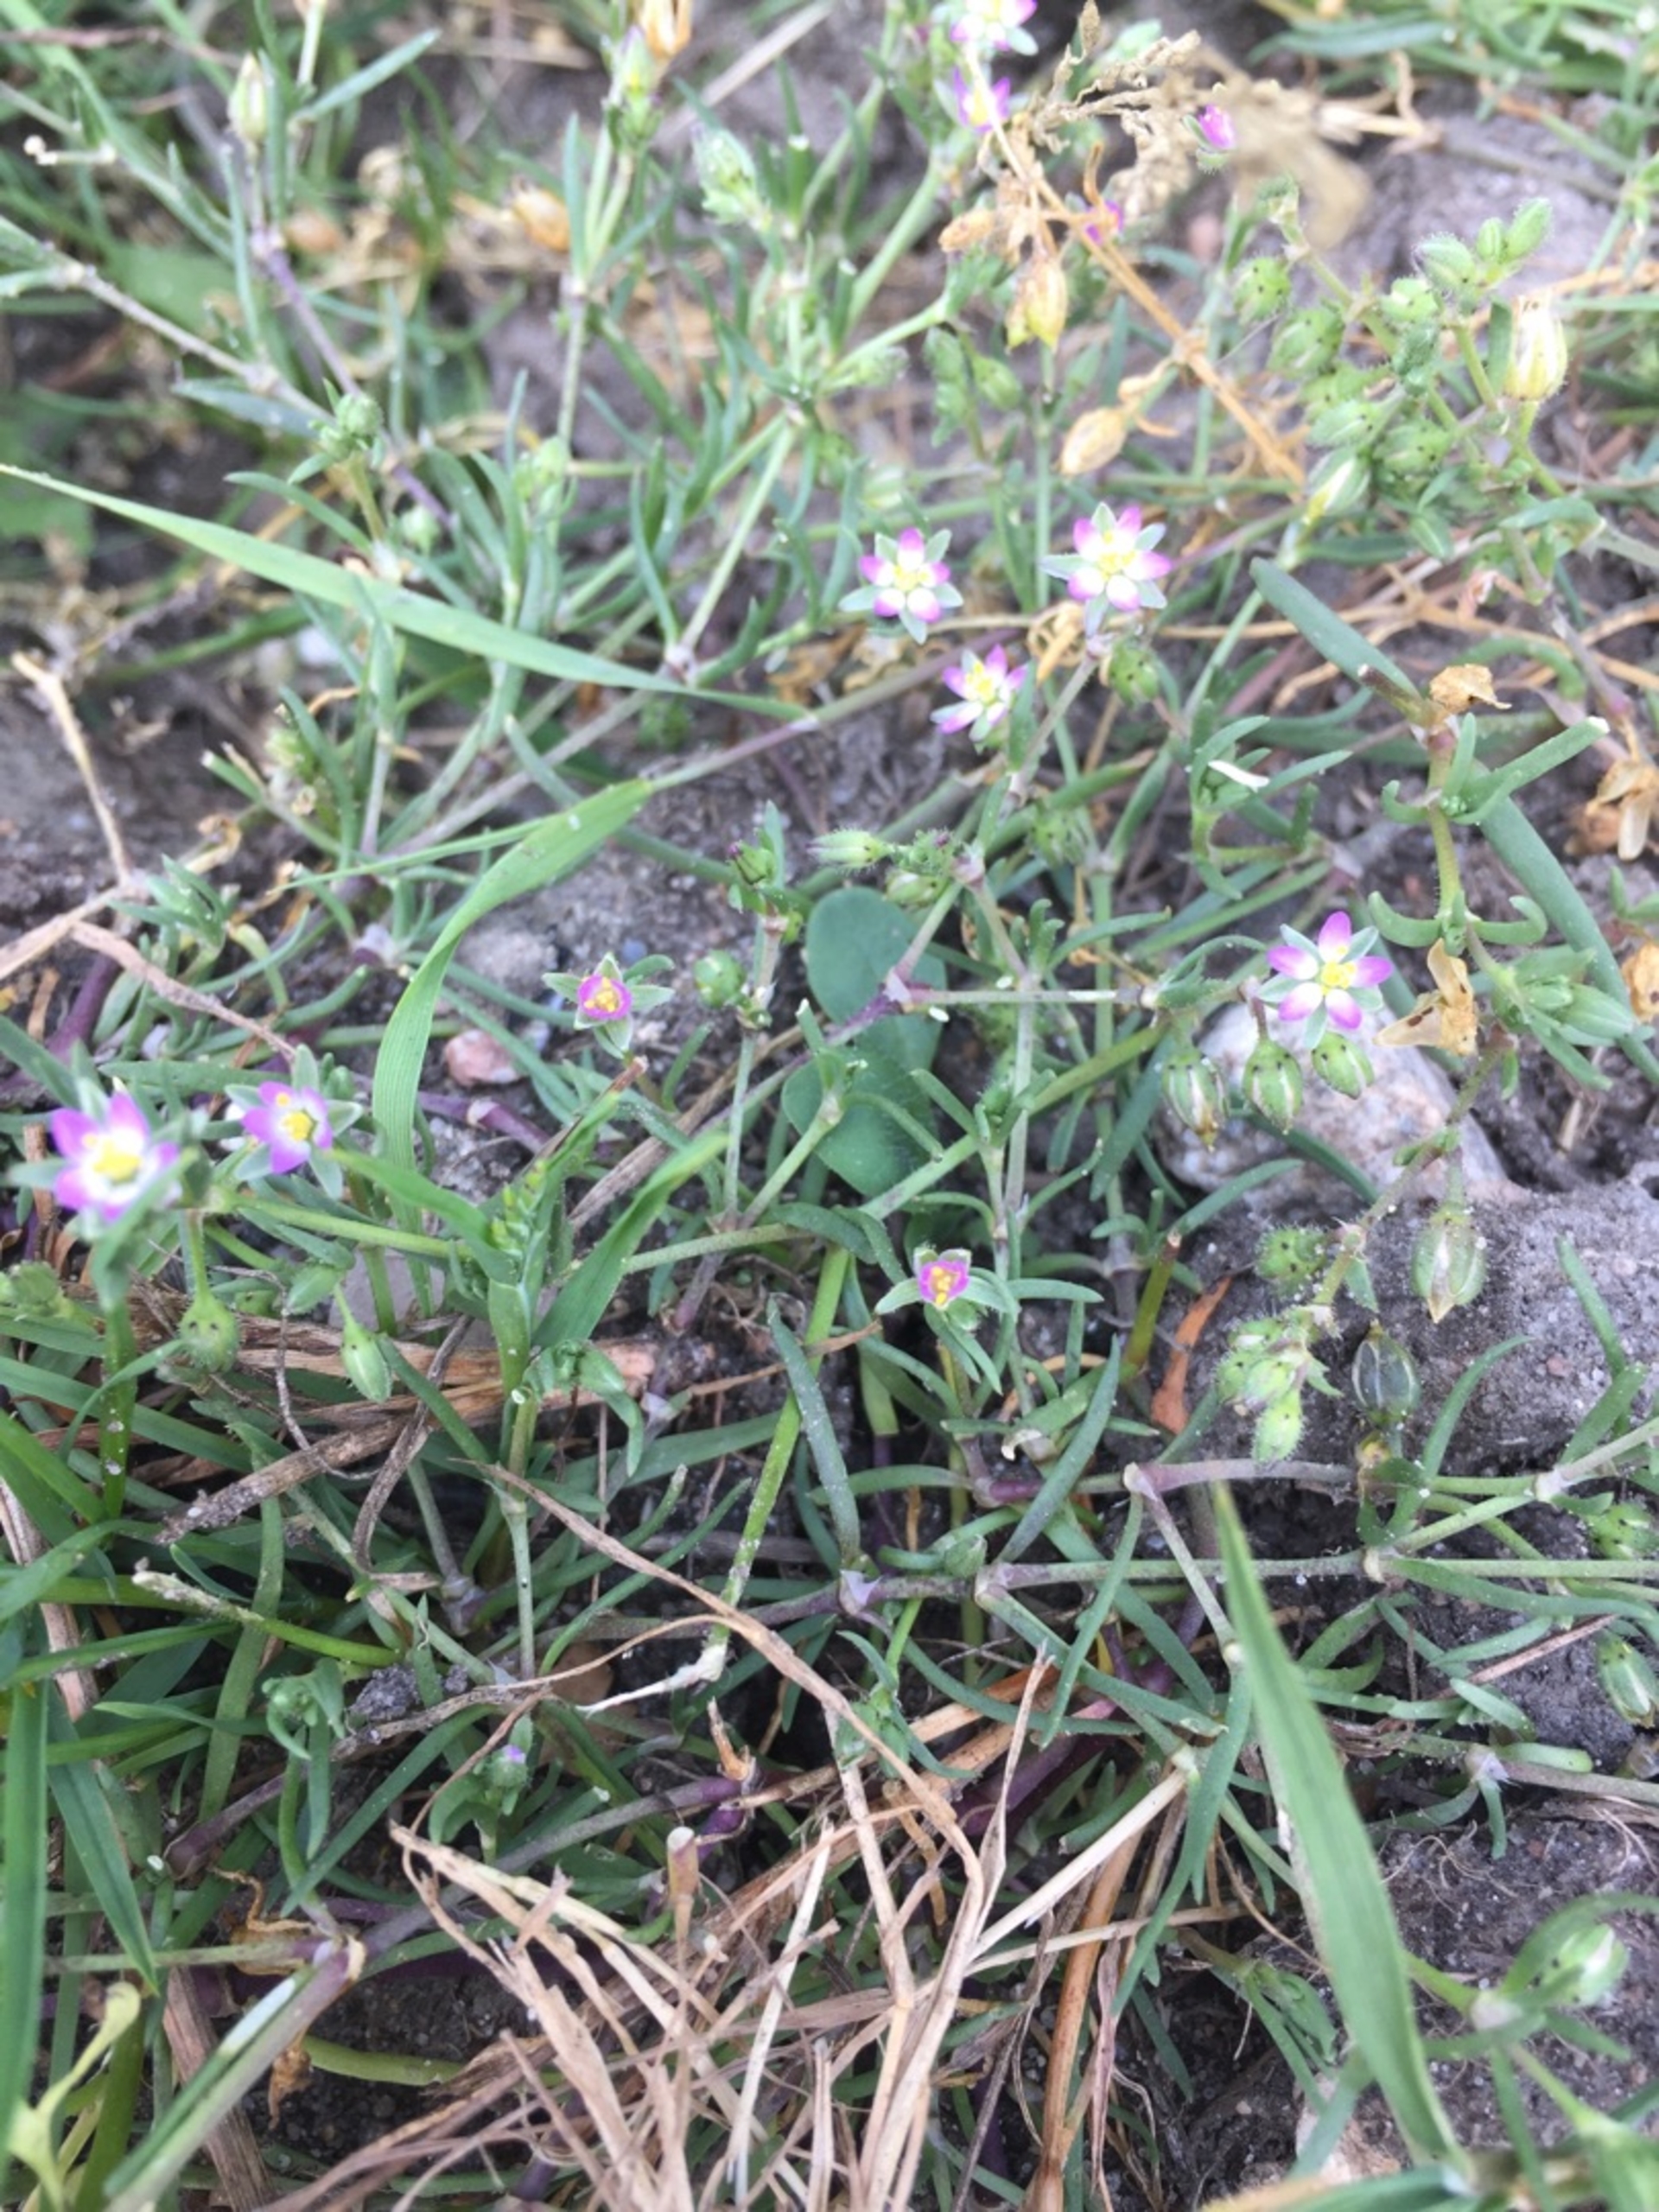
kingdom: Plantae
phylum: Tracheophyta
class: Magnoliopsida
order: Caryophyllales
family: Caryophyllaceae
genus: Spergularia
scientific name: Spergularia marina
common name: Kødet hindeknæ
